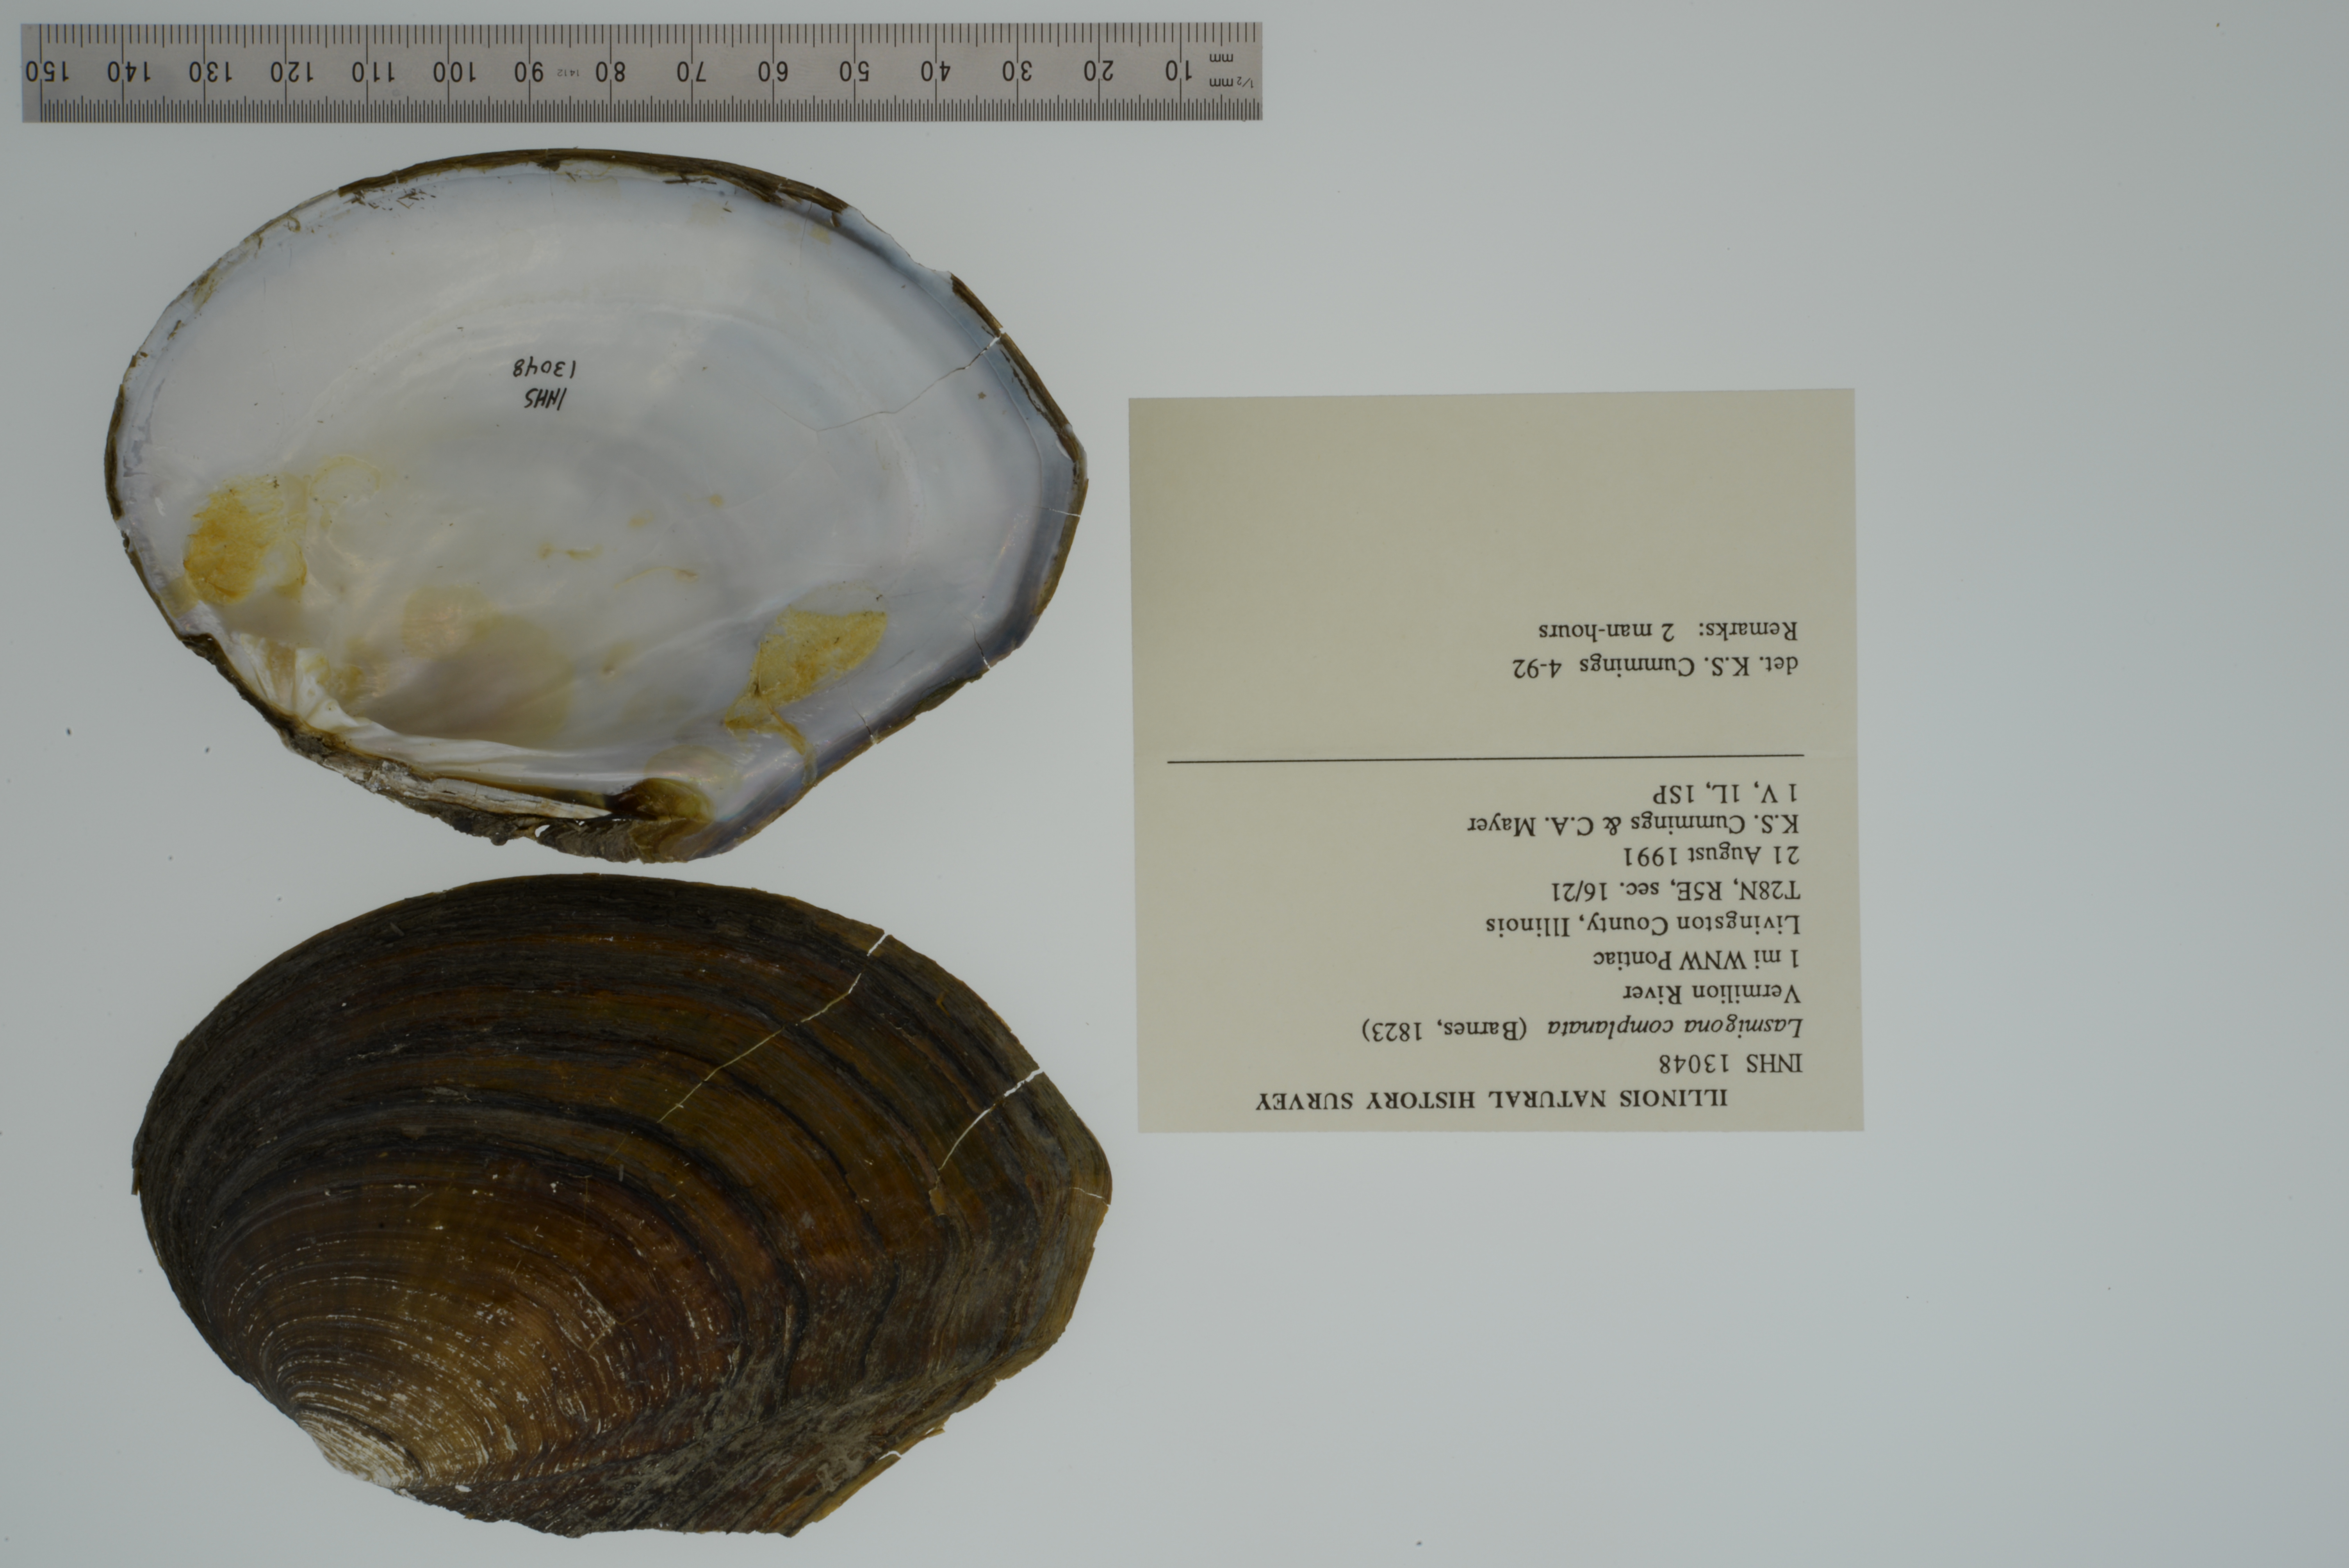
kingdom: Animalia
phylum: Mollusca
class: Bivalvia
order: Unionida
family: Unionidae
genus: Lasmigona
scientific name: Lasmigona complanata
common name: White heelsplitter
